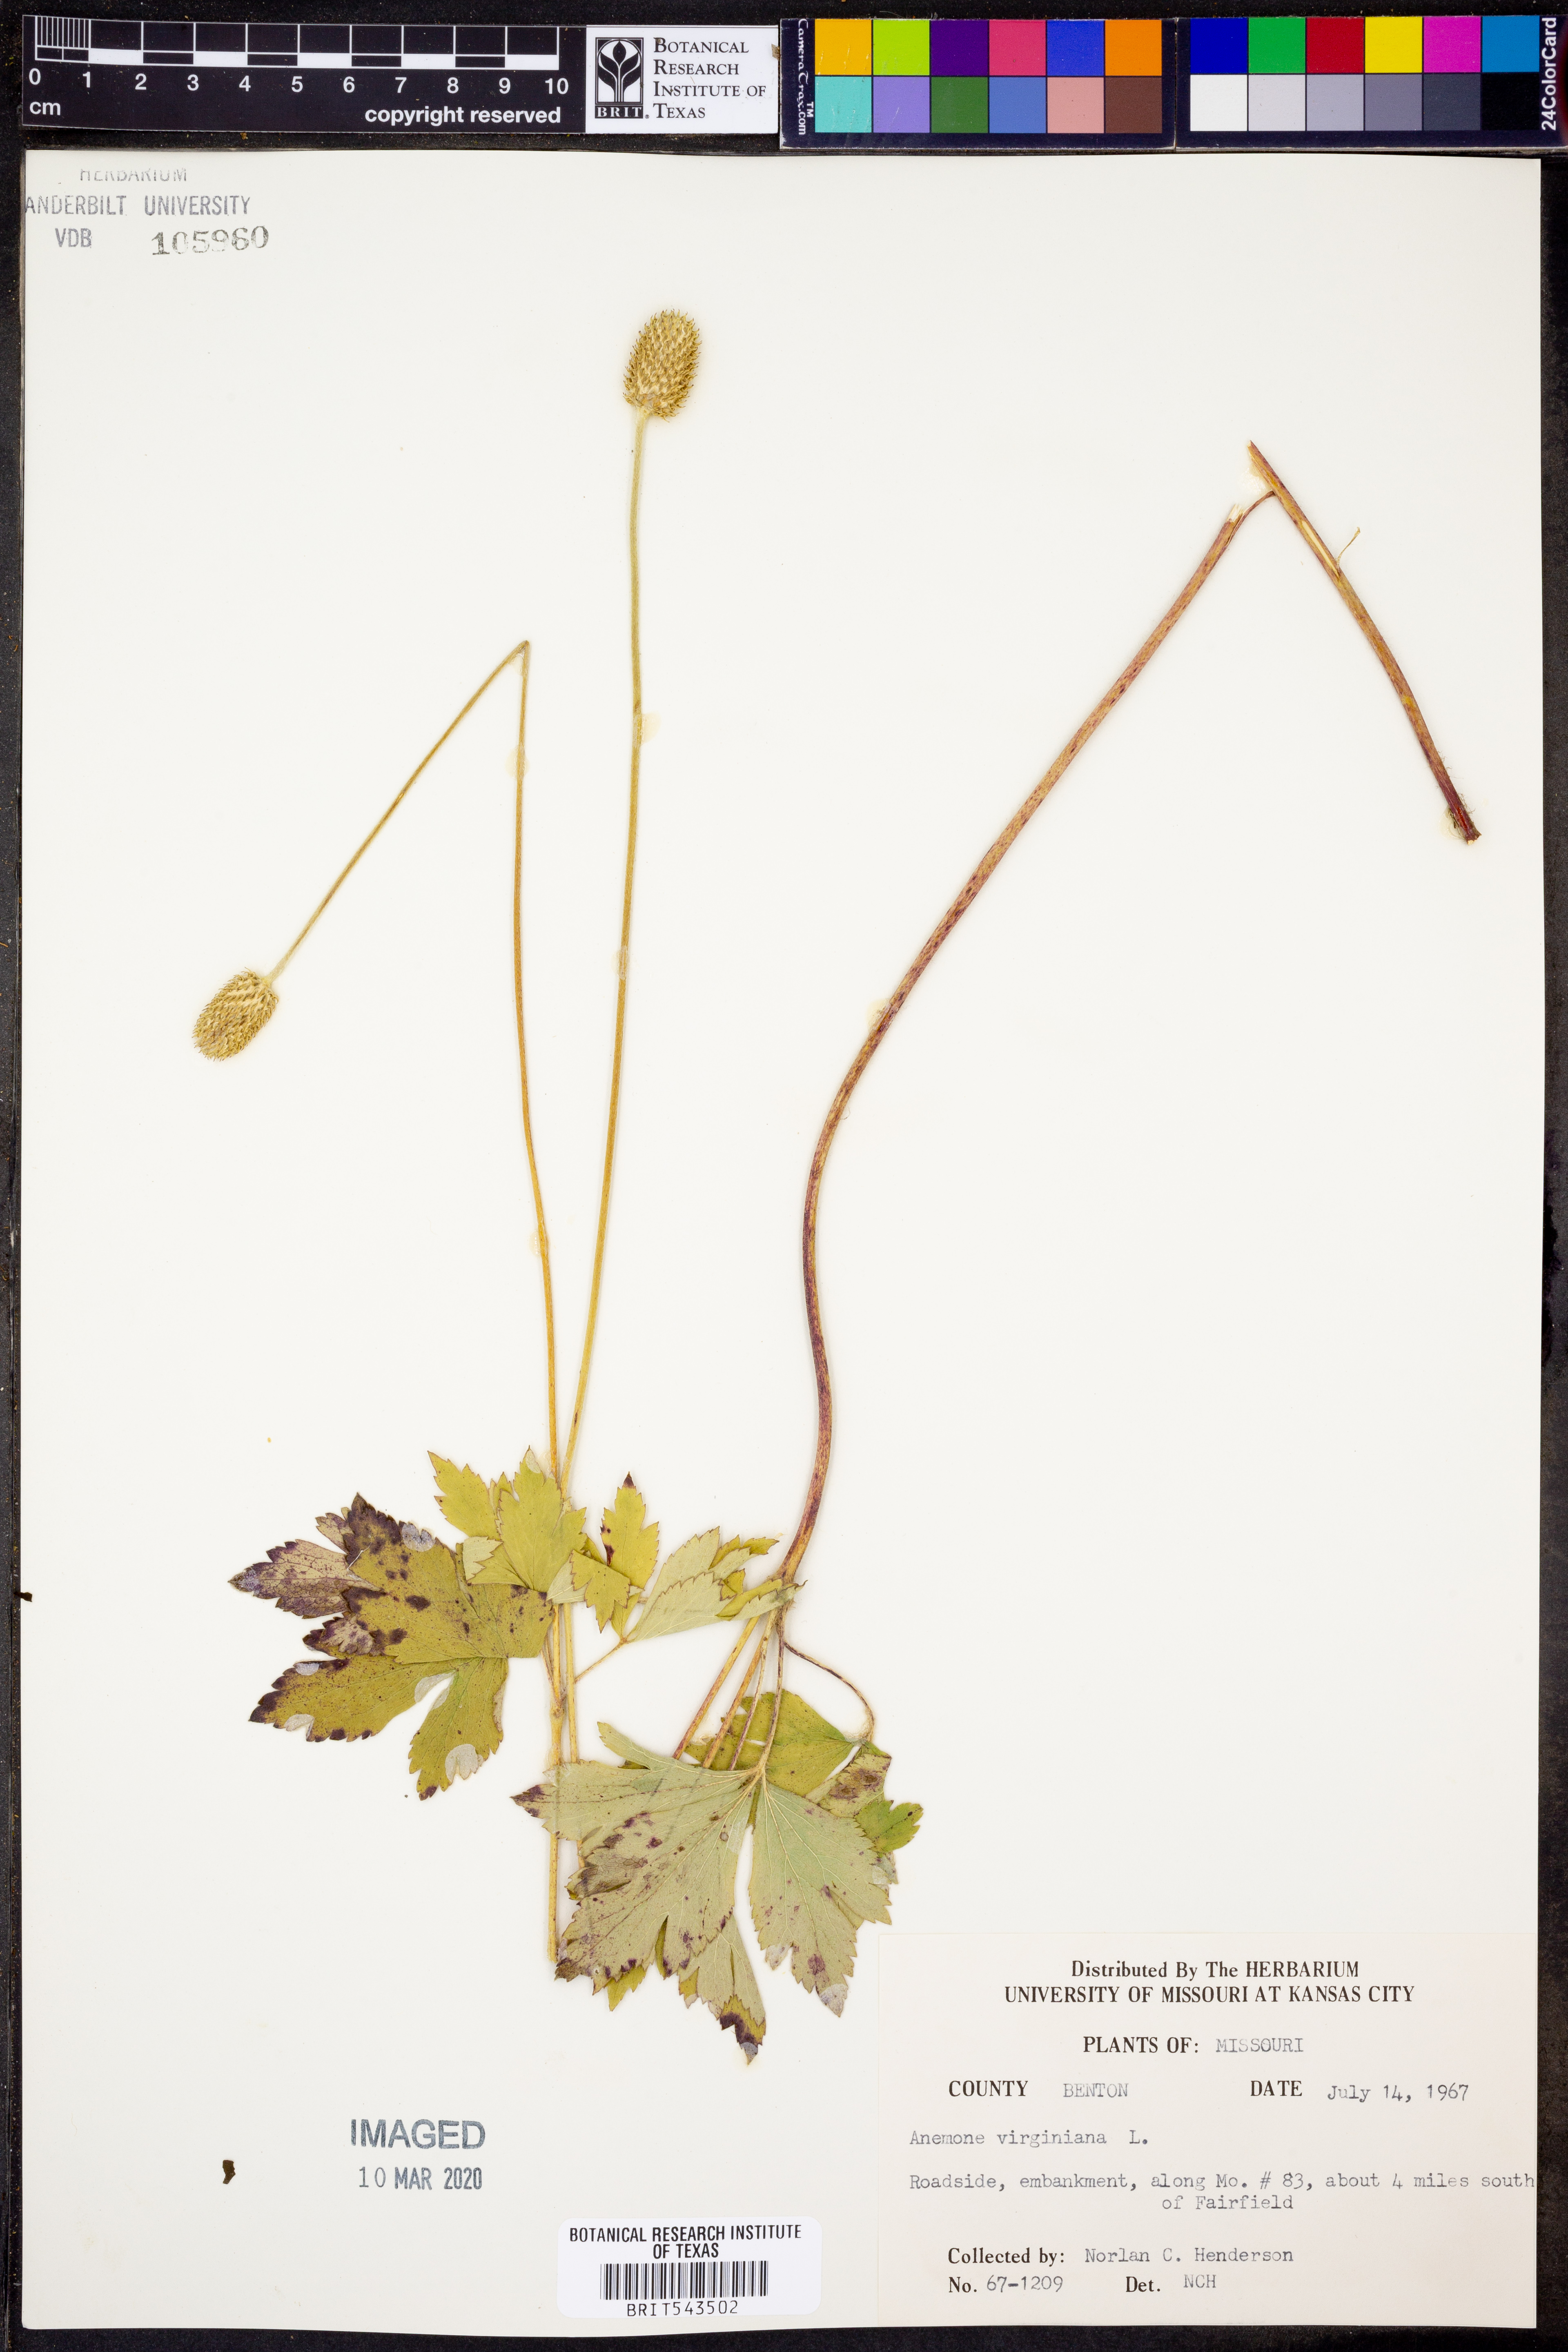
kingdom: Plantae
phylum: Tracheophyta
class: Magnoliopsida
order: Ranunculales
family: Ranunculaceae
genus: Anemone
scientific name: Anemone virginiana
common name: Tall anemone
